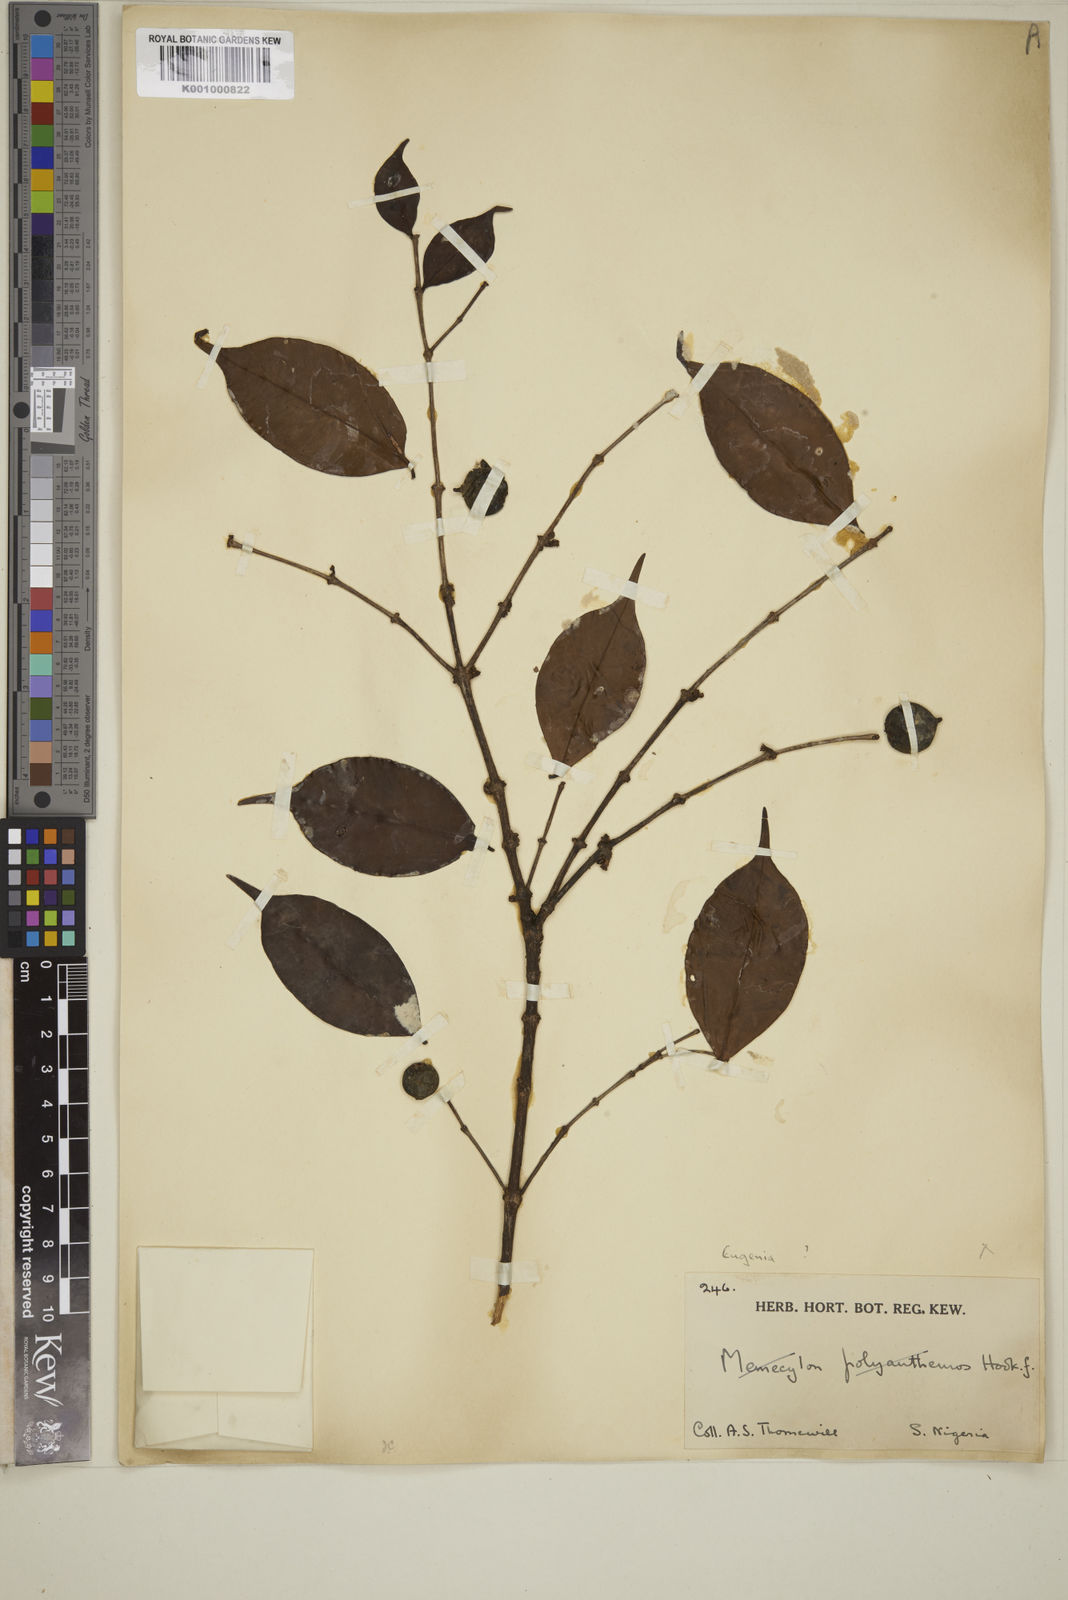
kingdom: Plantae
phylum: Tracheophyta
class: Magnoliopsida
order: Myrtales
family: Myrtaceae
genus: Eugenia
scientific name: Eugenia
